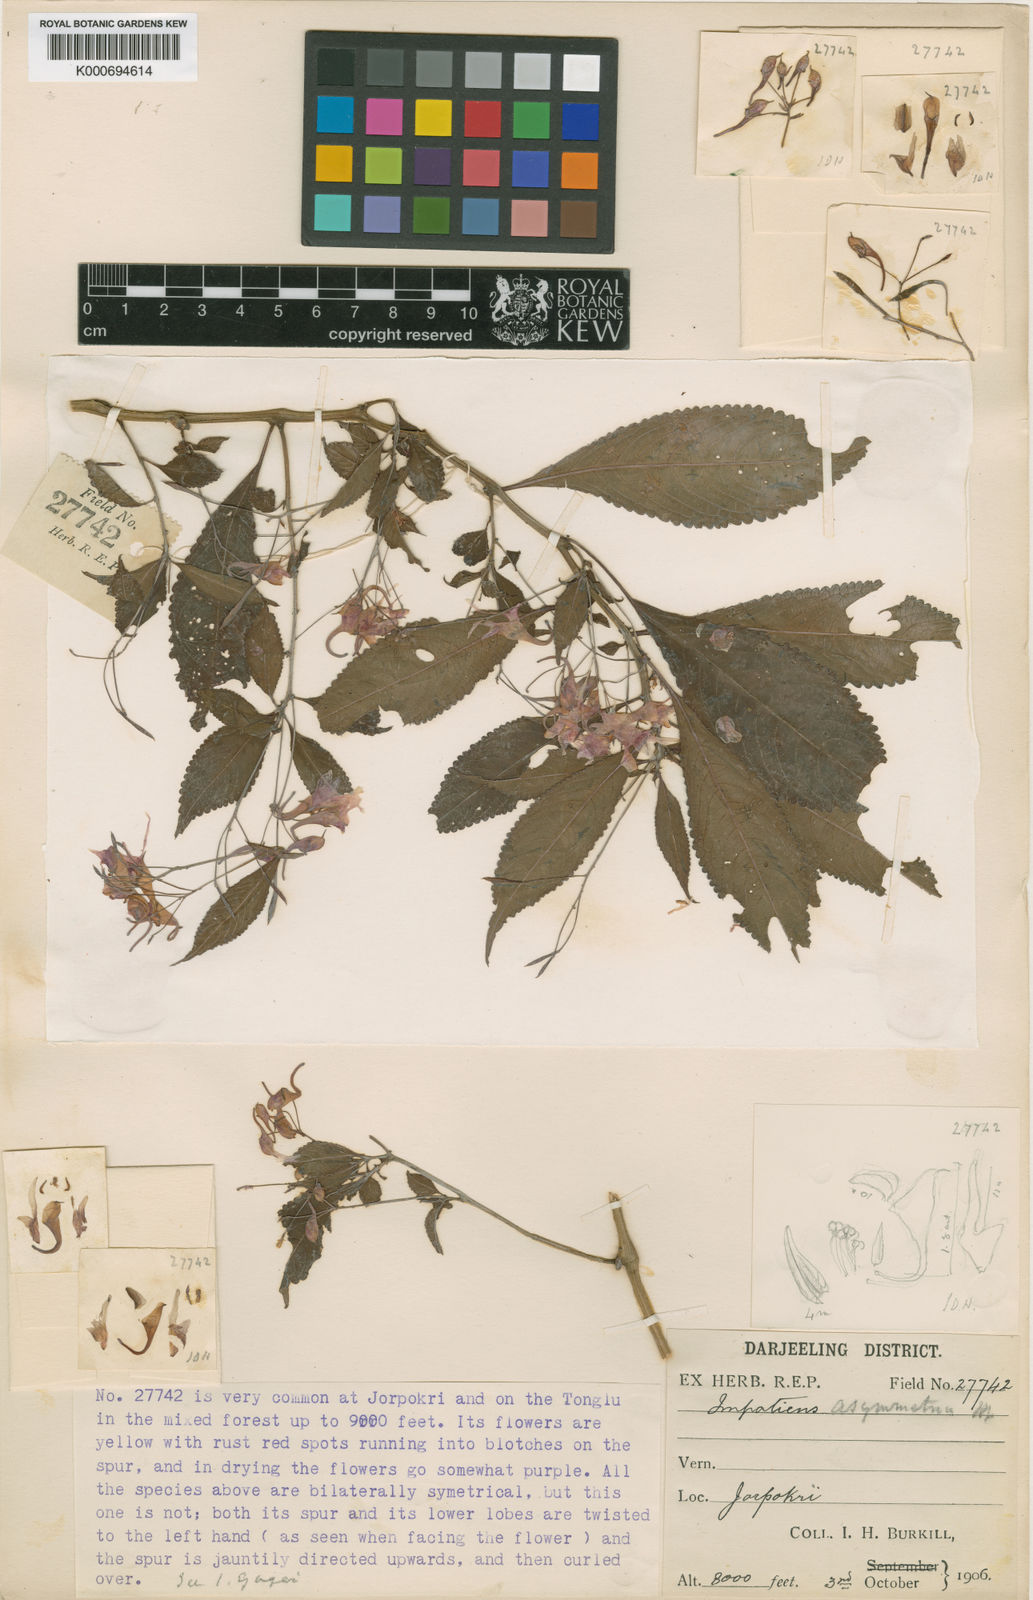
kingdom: Plantae
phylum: Tracheophyta
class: Magnoliopsida
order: Ericales
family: Balsaminaceae
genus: Impatiens
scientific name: Impatiens
